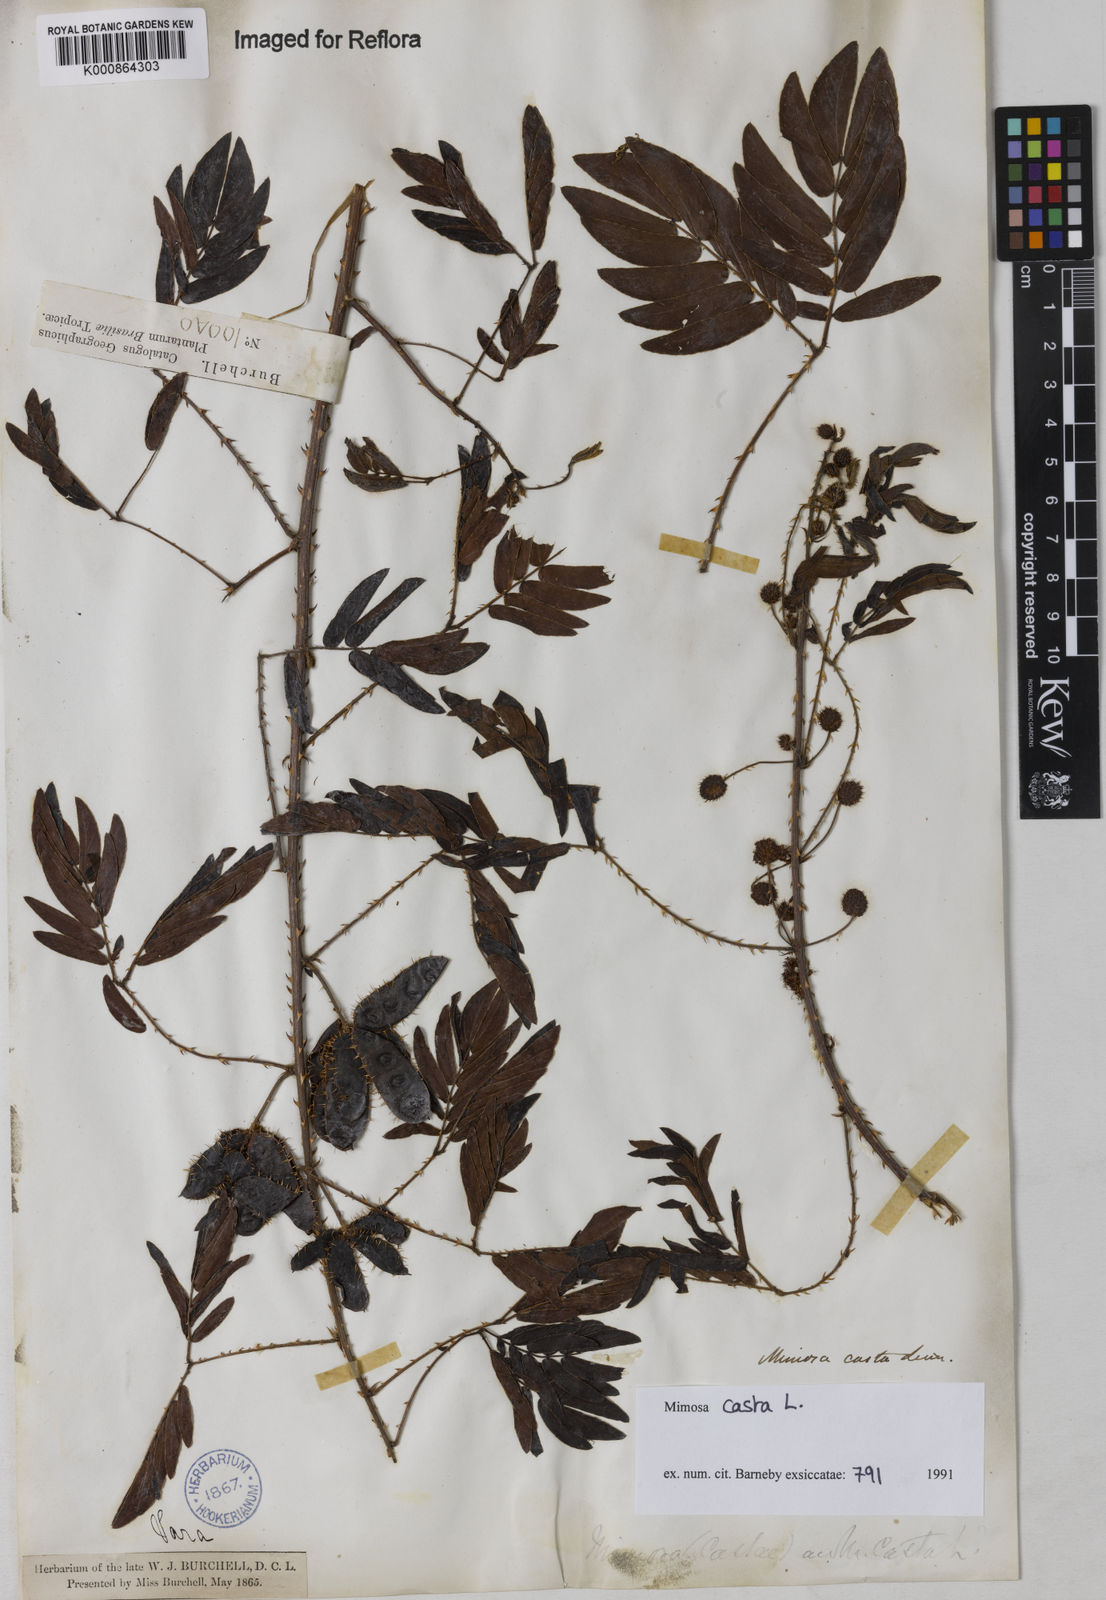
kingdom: Plantae
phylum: Tracheophyta
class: Magnoliopsida
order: Fabales
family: Fabaceae
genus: Mimosa
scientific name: Mimosa casta
